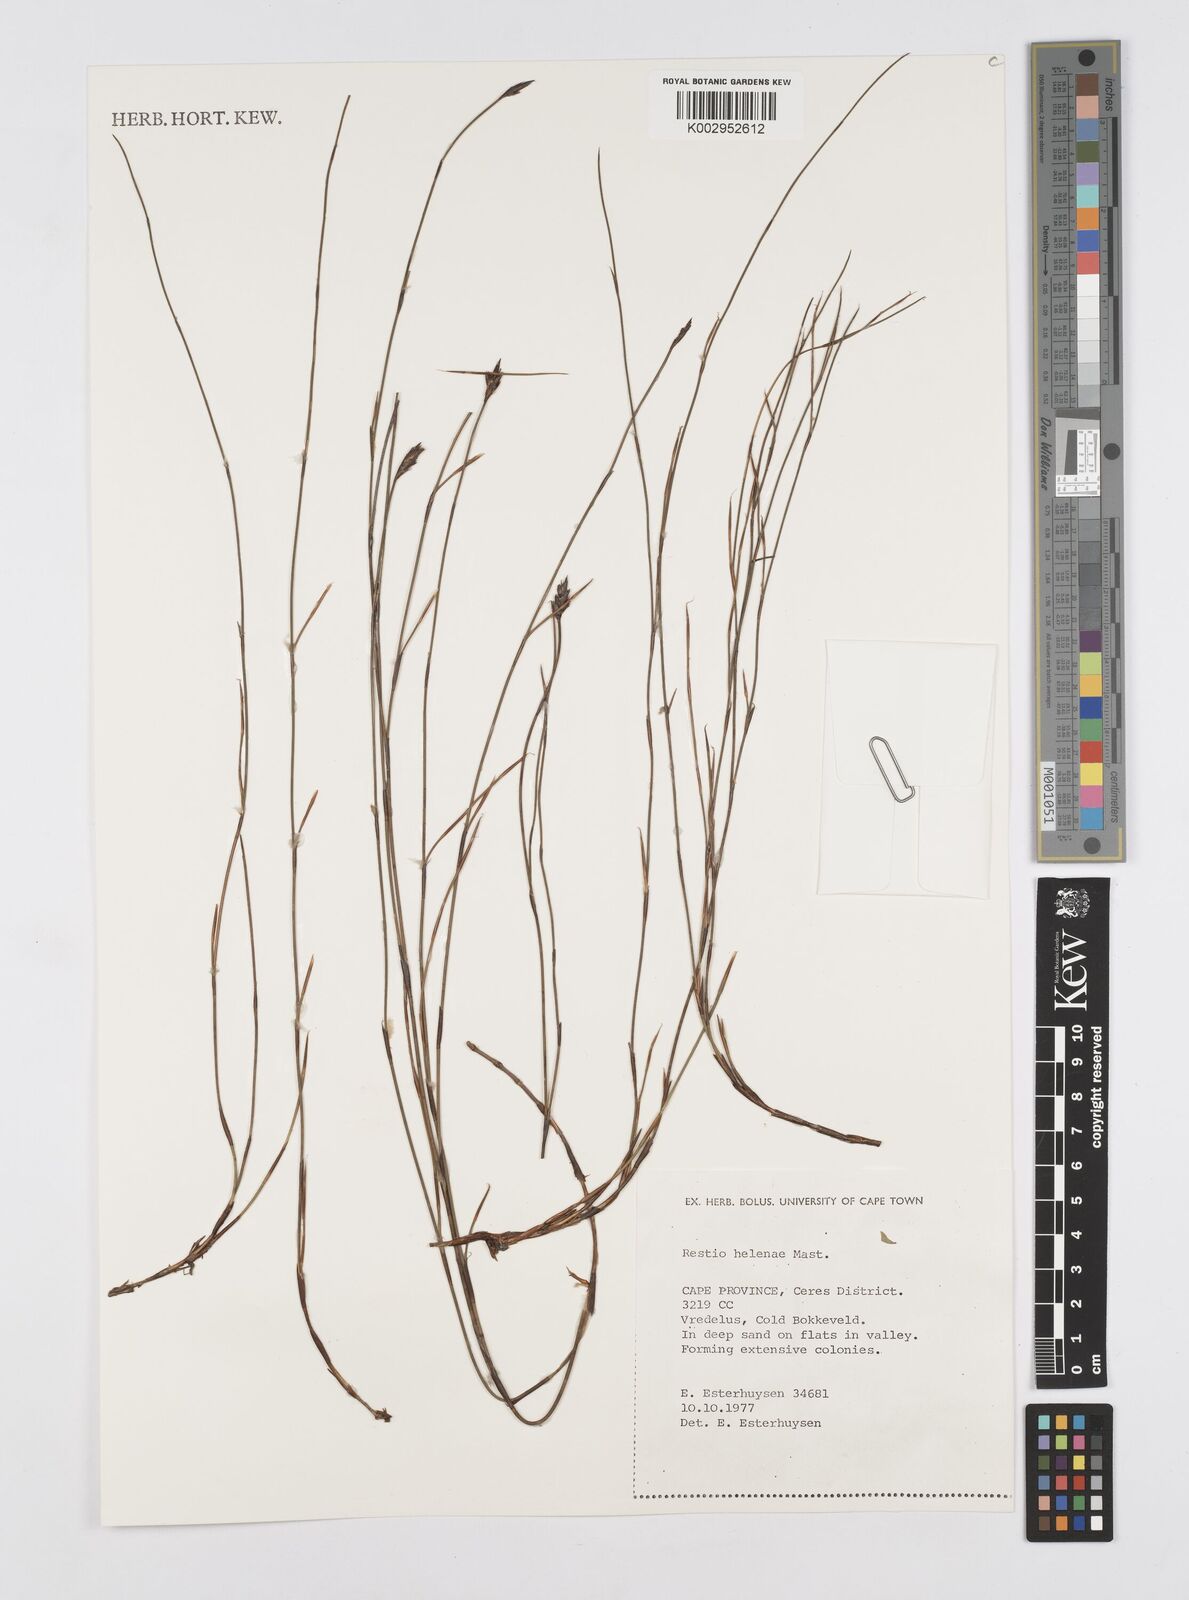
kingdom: Plantae
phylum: Tracheophyta
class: Liliopsida
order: Poales
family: Restionaceae
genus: Restio
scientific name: Restio helenae
